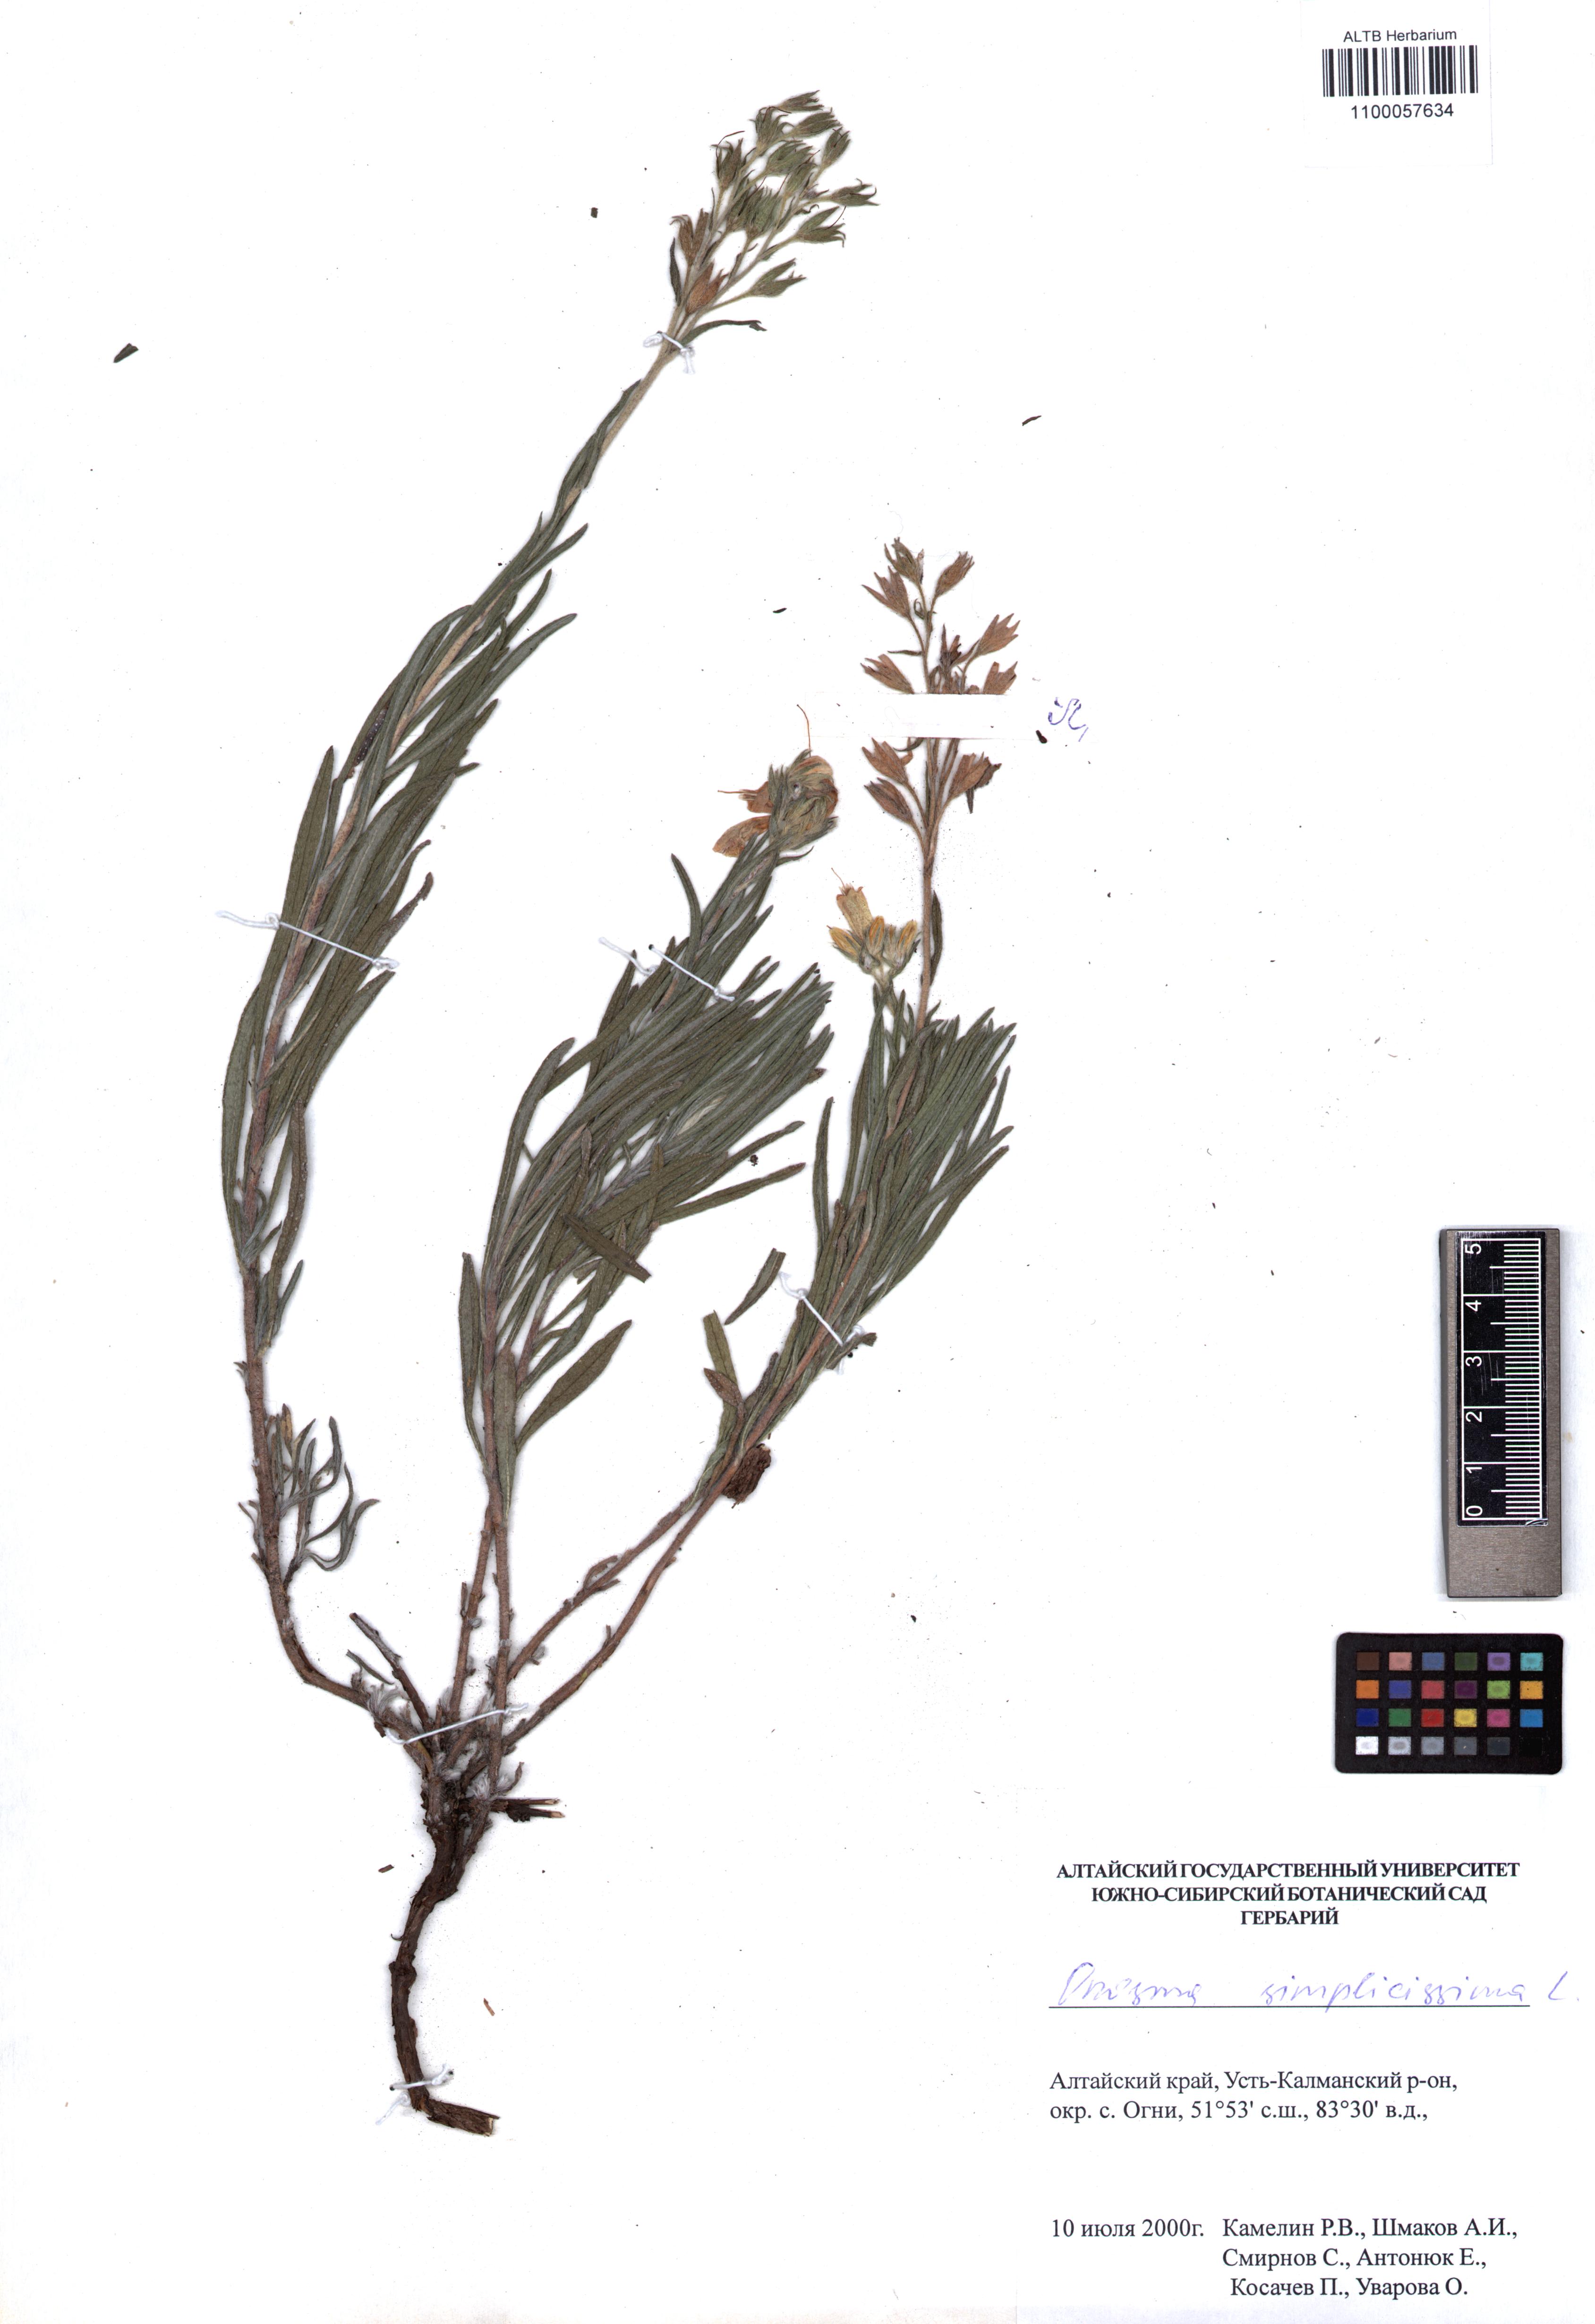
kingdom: Plantae
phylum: Tracheophyta
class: Magnoliopsida
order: Boraginales
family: Boraginaceae
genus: Onosma
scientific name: Onosma simplicissima
